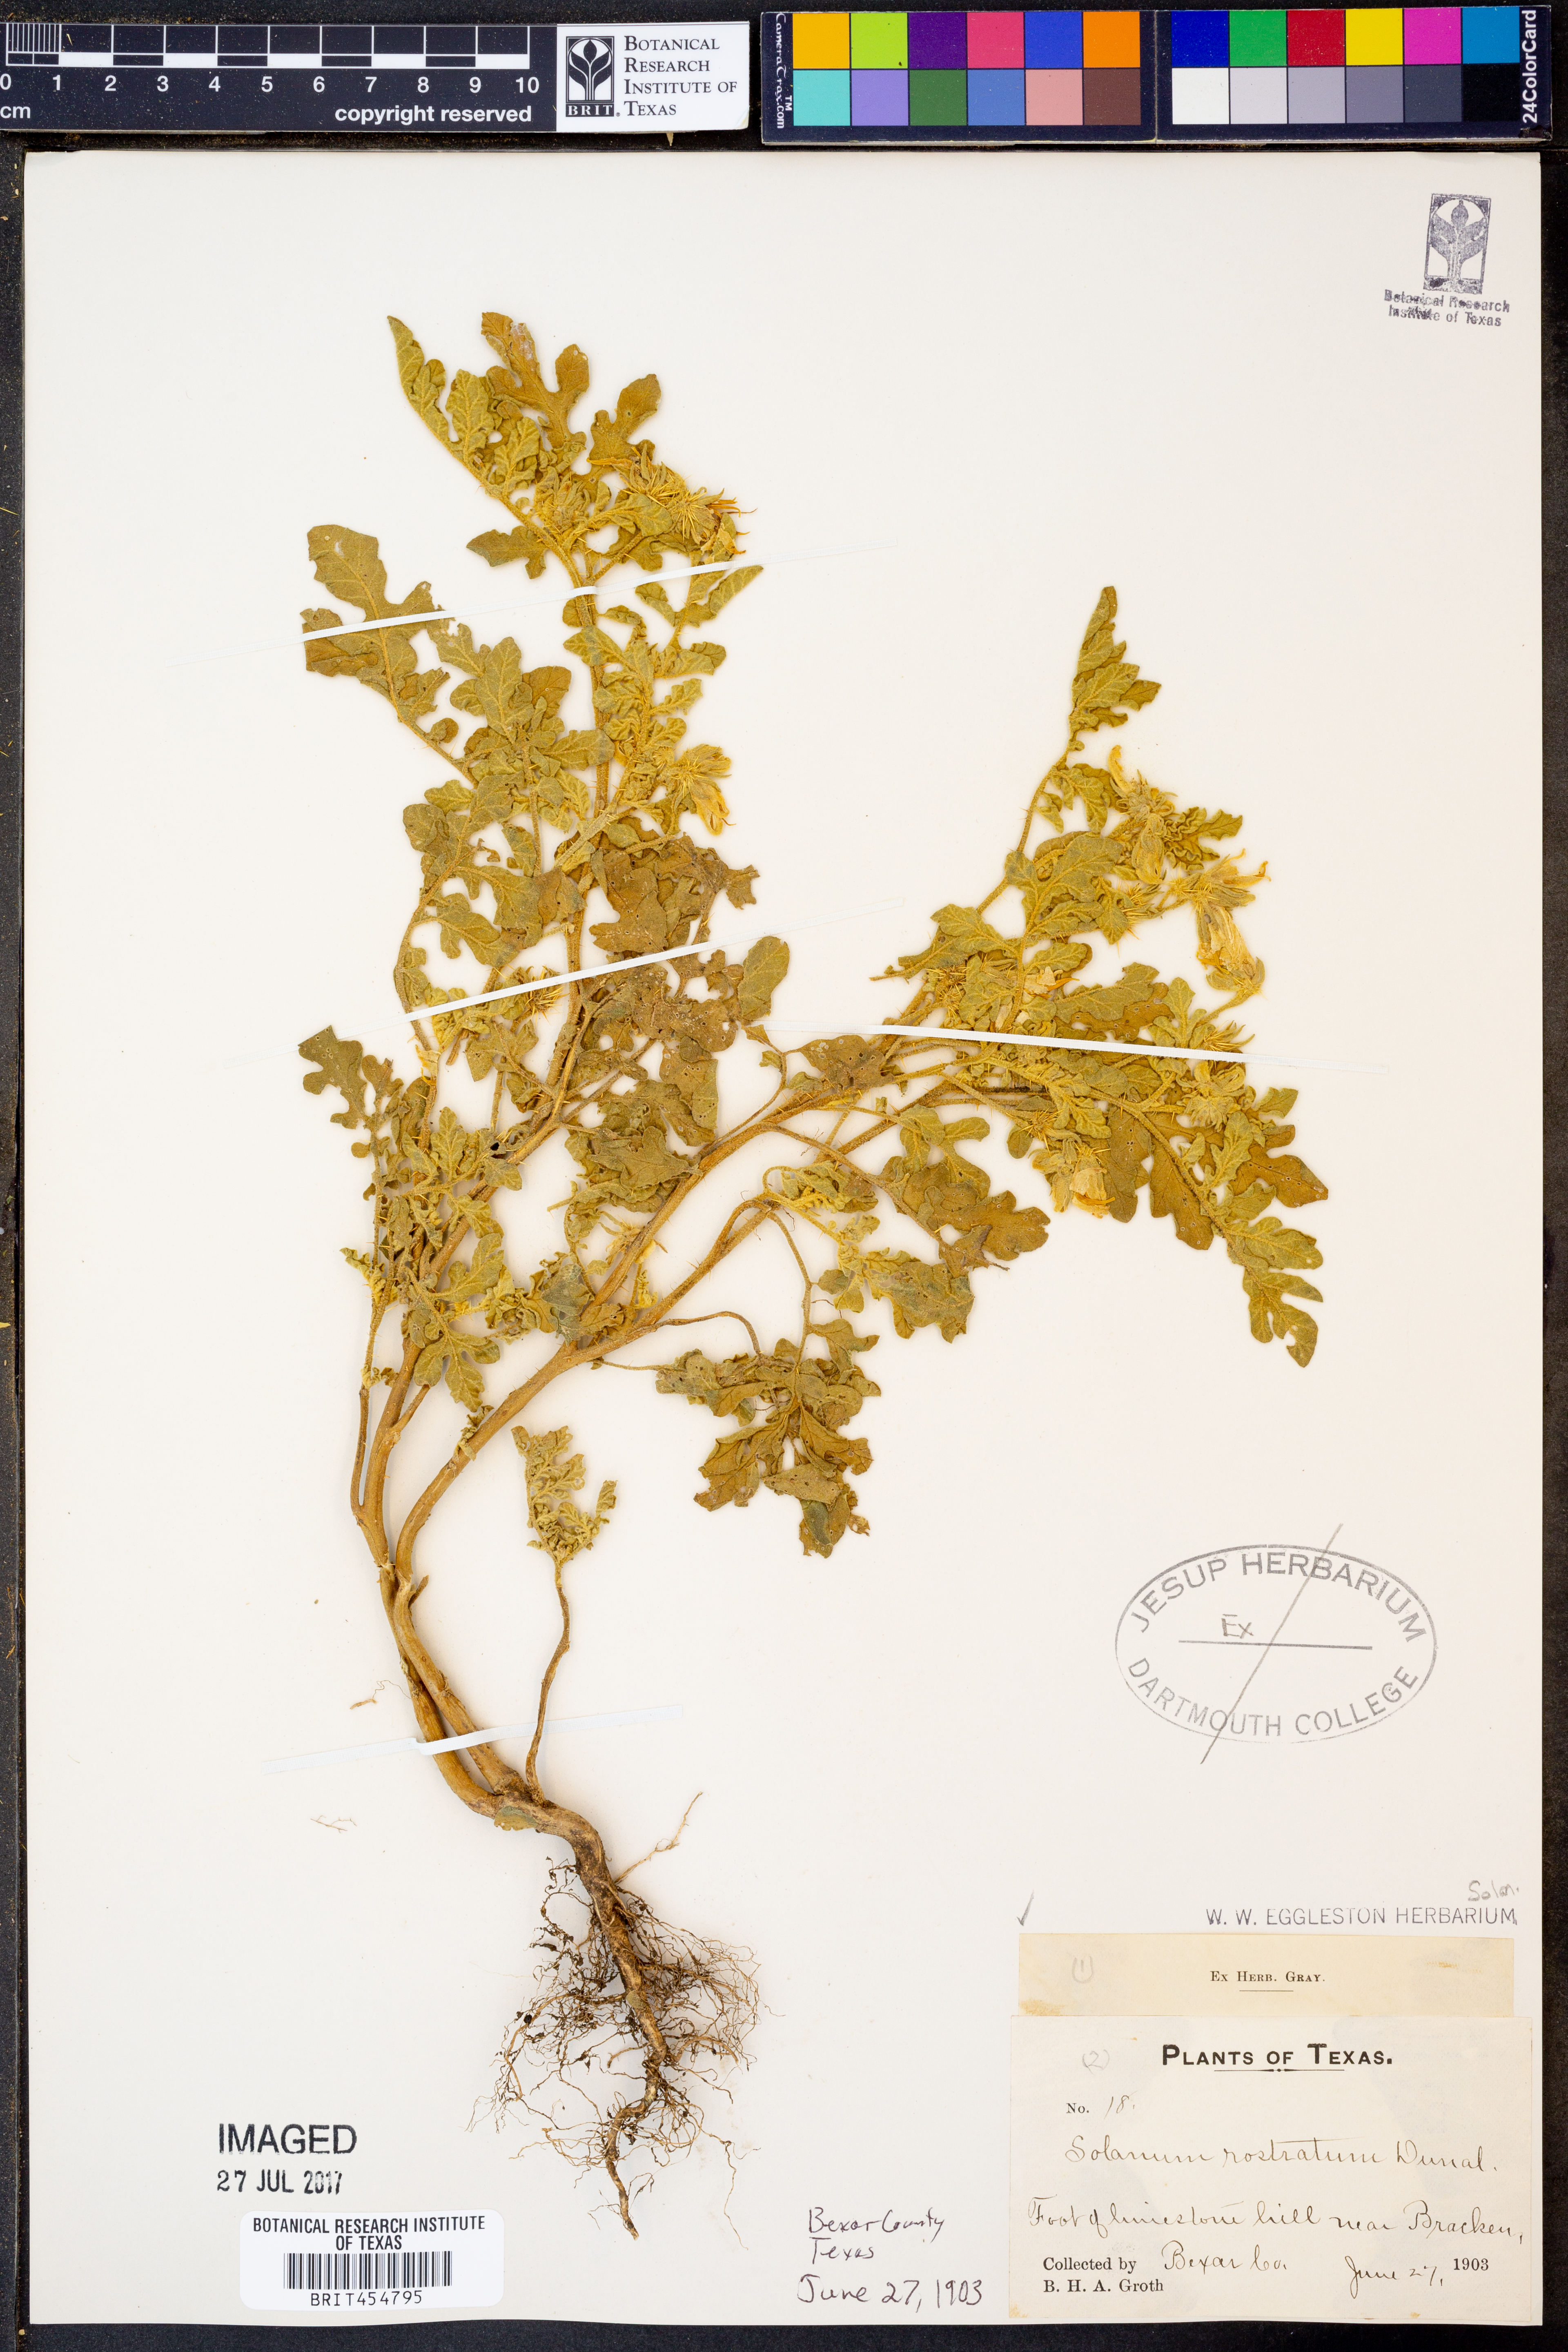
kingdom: Plantae
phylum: Tracheophyta
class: Magnoliopsida
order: Solanales
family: Solanaceae
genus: Solanum
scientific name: Solanum angustifolium
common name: Buffalobur nightshade
